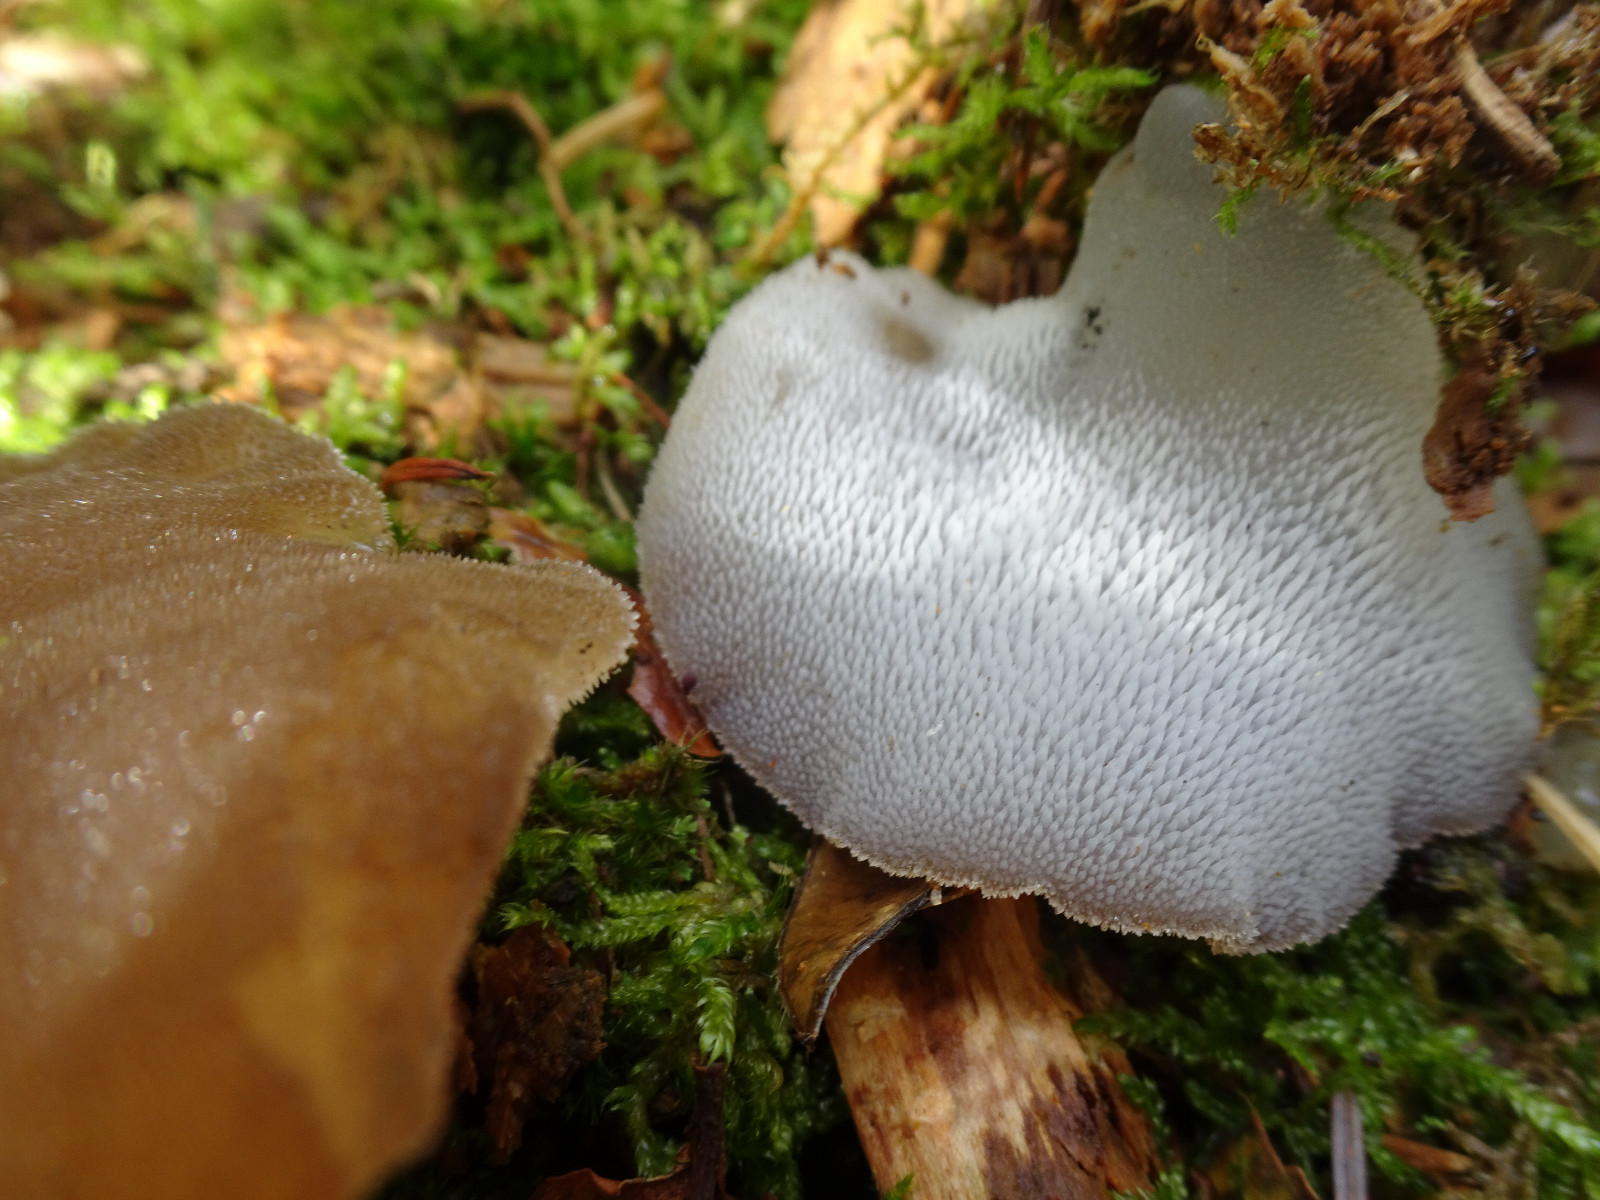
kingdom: Fungi
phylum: Basidiomycota
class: Agaricomycetes
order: Auriculariales
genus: Pseudohydnum
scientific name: Pseudohydnum gelatinosum
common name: bævretand
